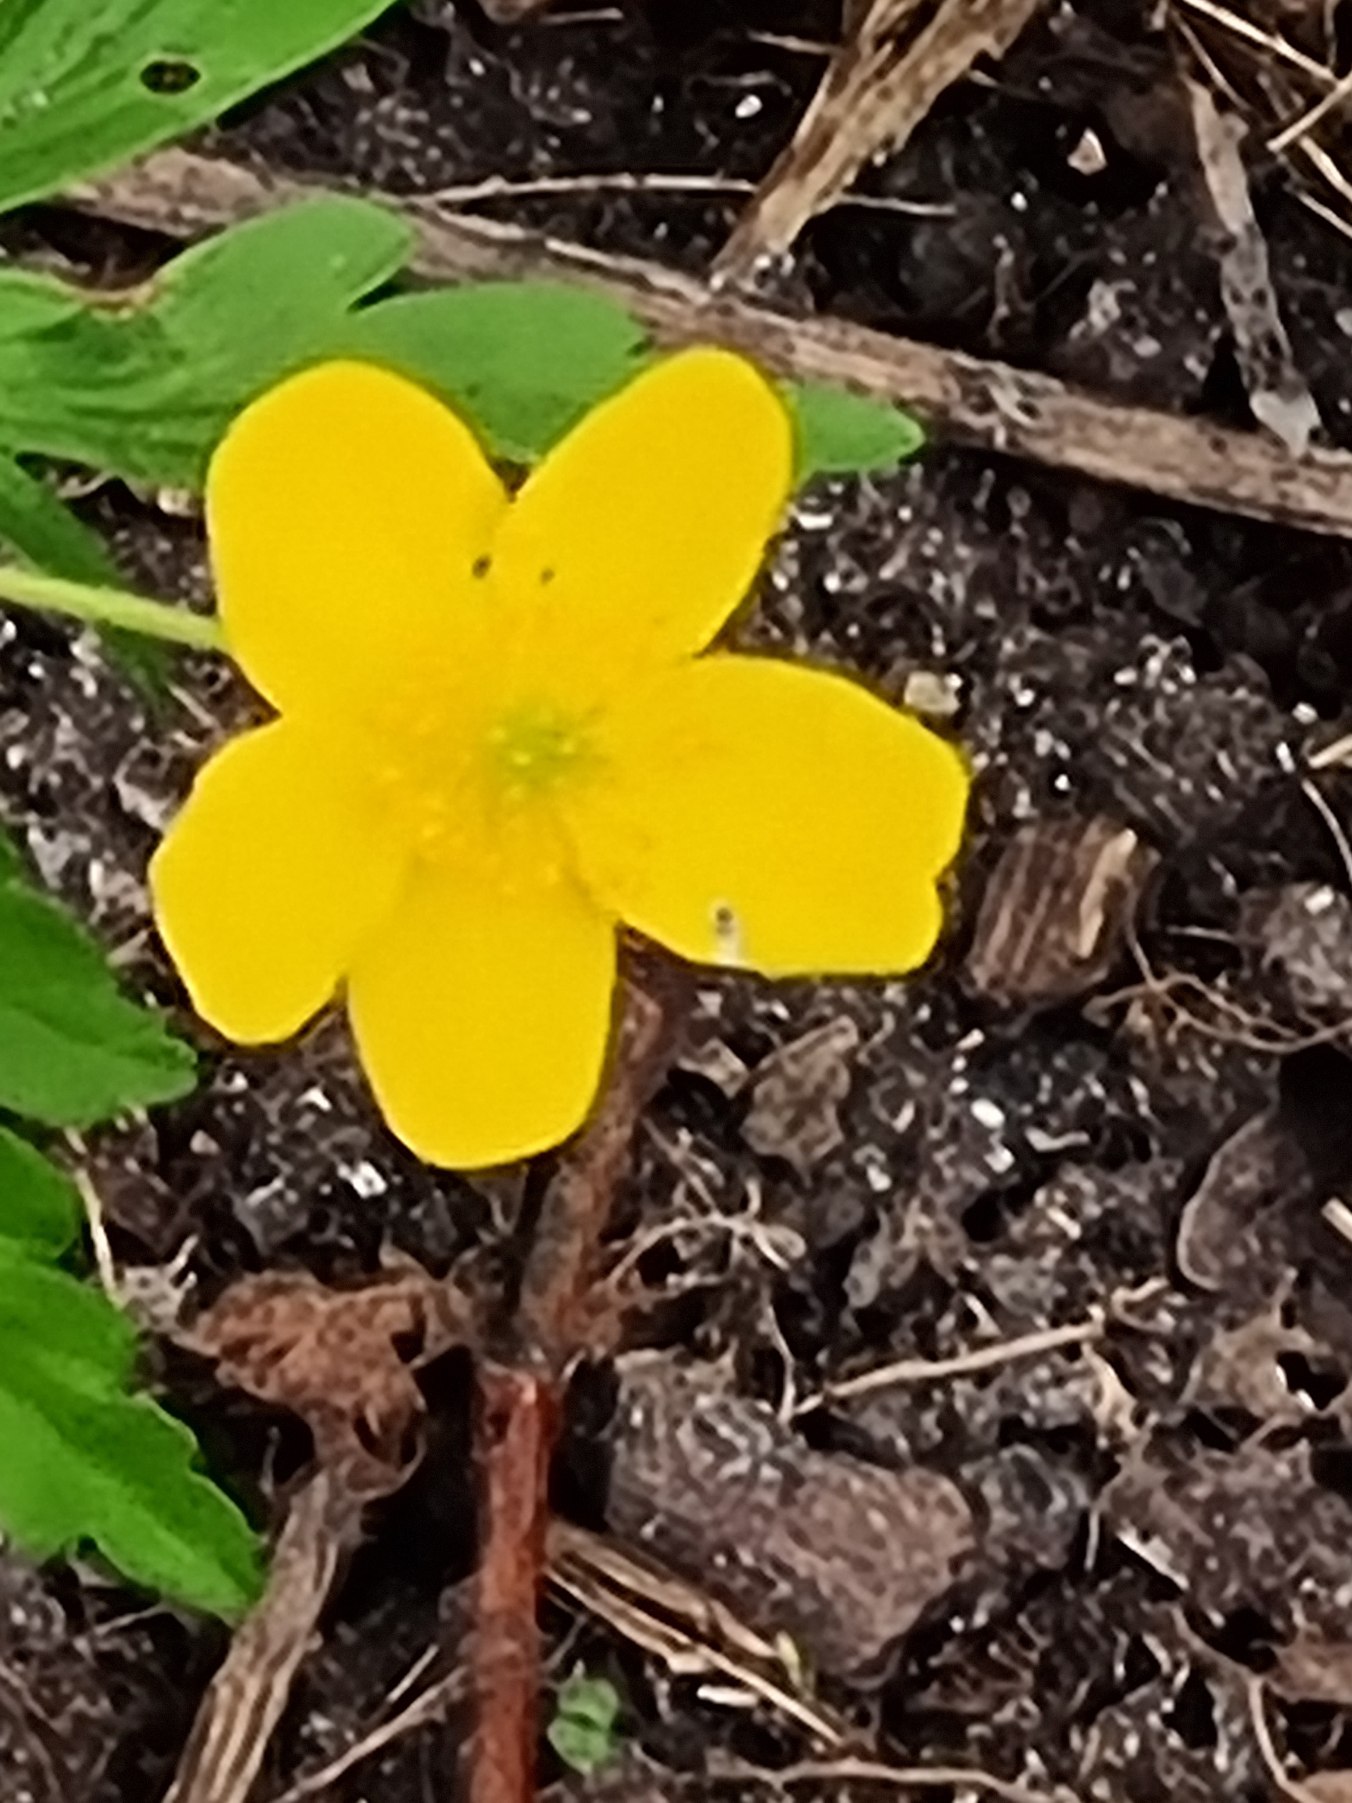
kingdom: Plantae
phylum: Tracheophyta
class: Magnoliopsida
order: Ranunculales
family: Ranunculaceae
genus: Anemone
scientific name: Anemone ranunculoides
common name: Gul anemone
